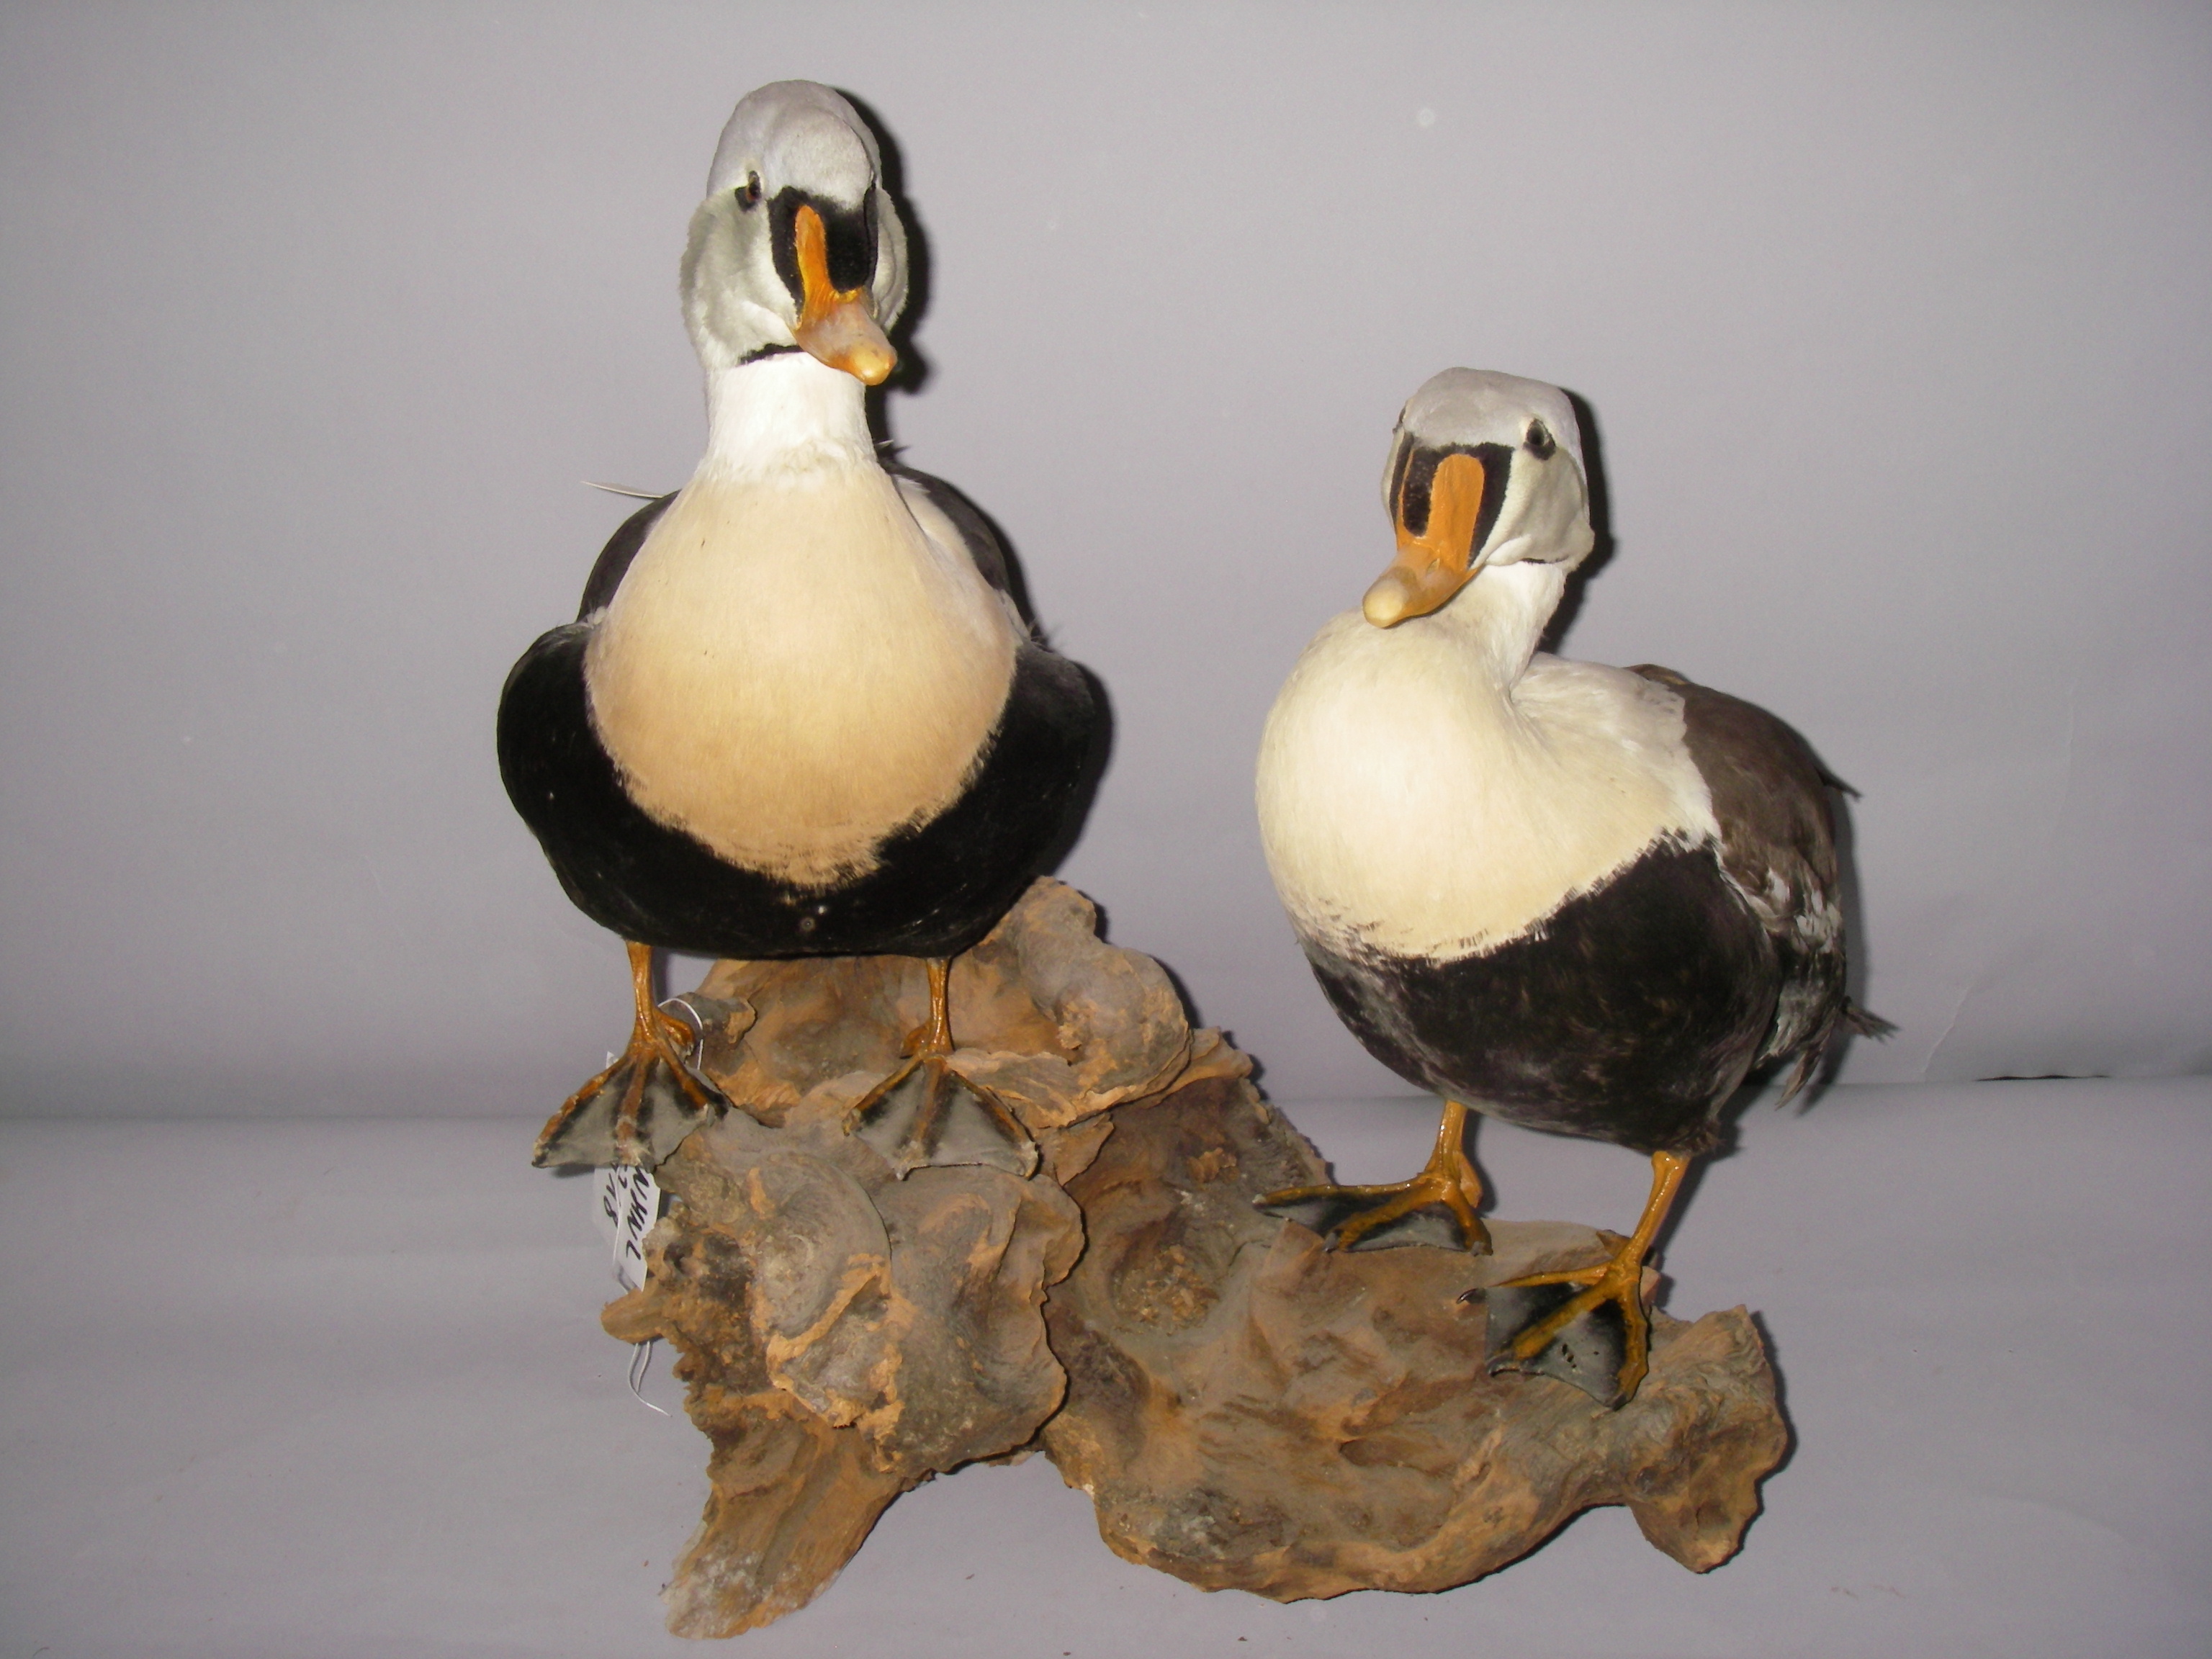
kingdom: Animalia
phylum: Chordata
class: Aves
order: Anseriformes
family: Anatidae
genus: Somateria
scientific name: Somateria spectabilis
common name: King eider
